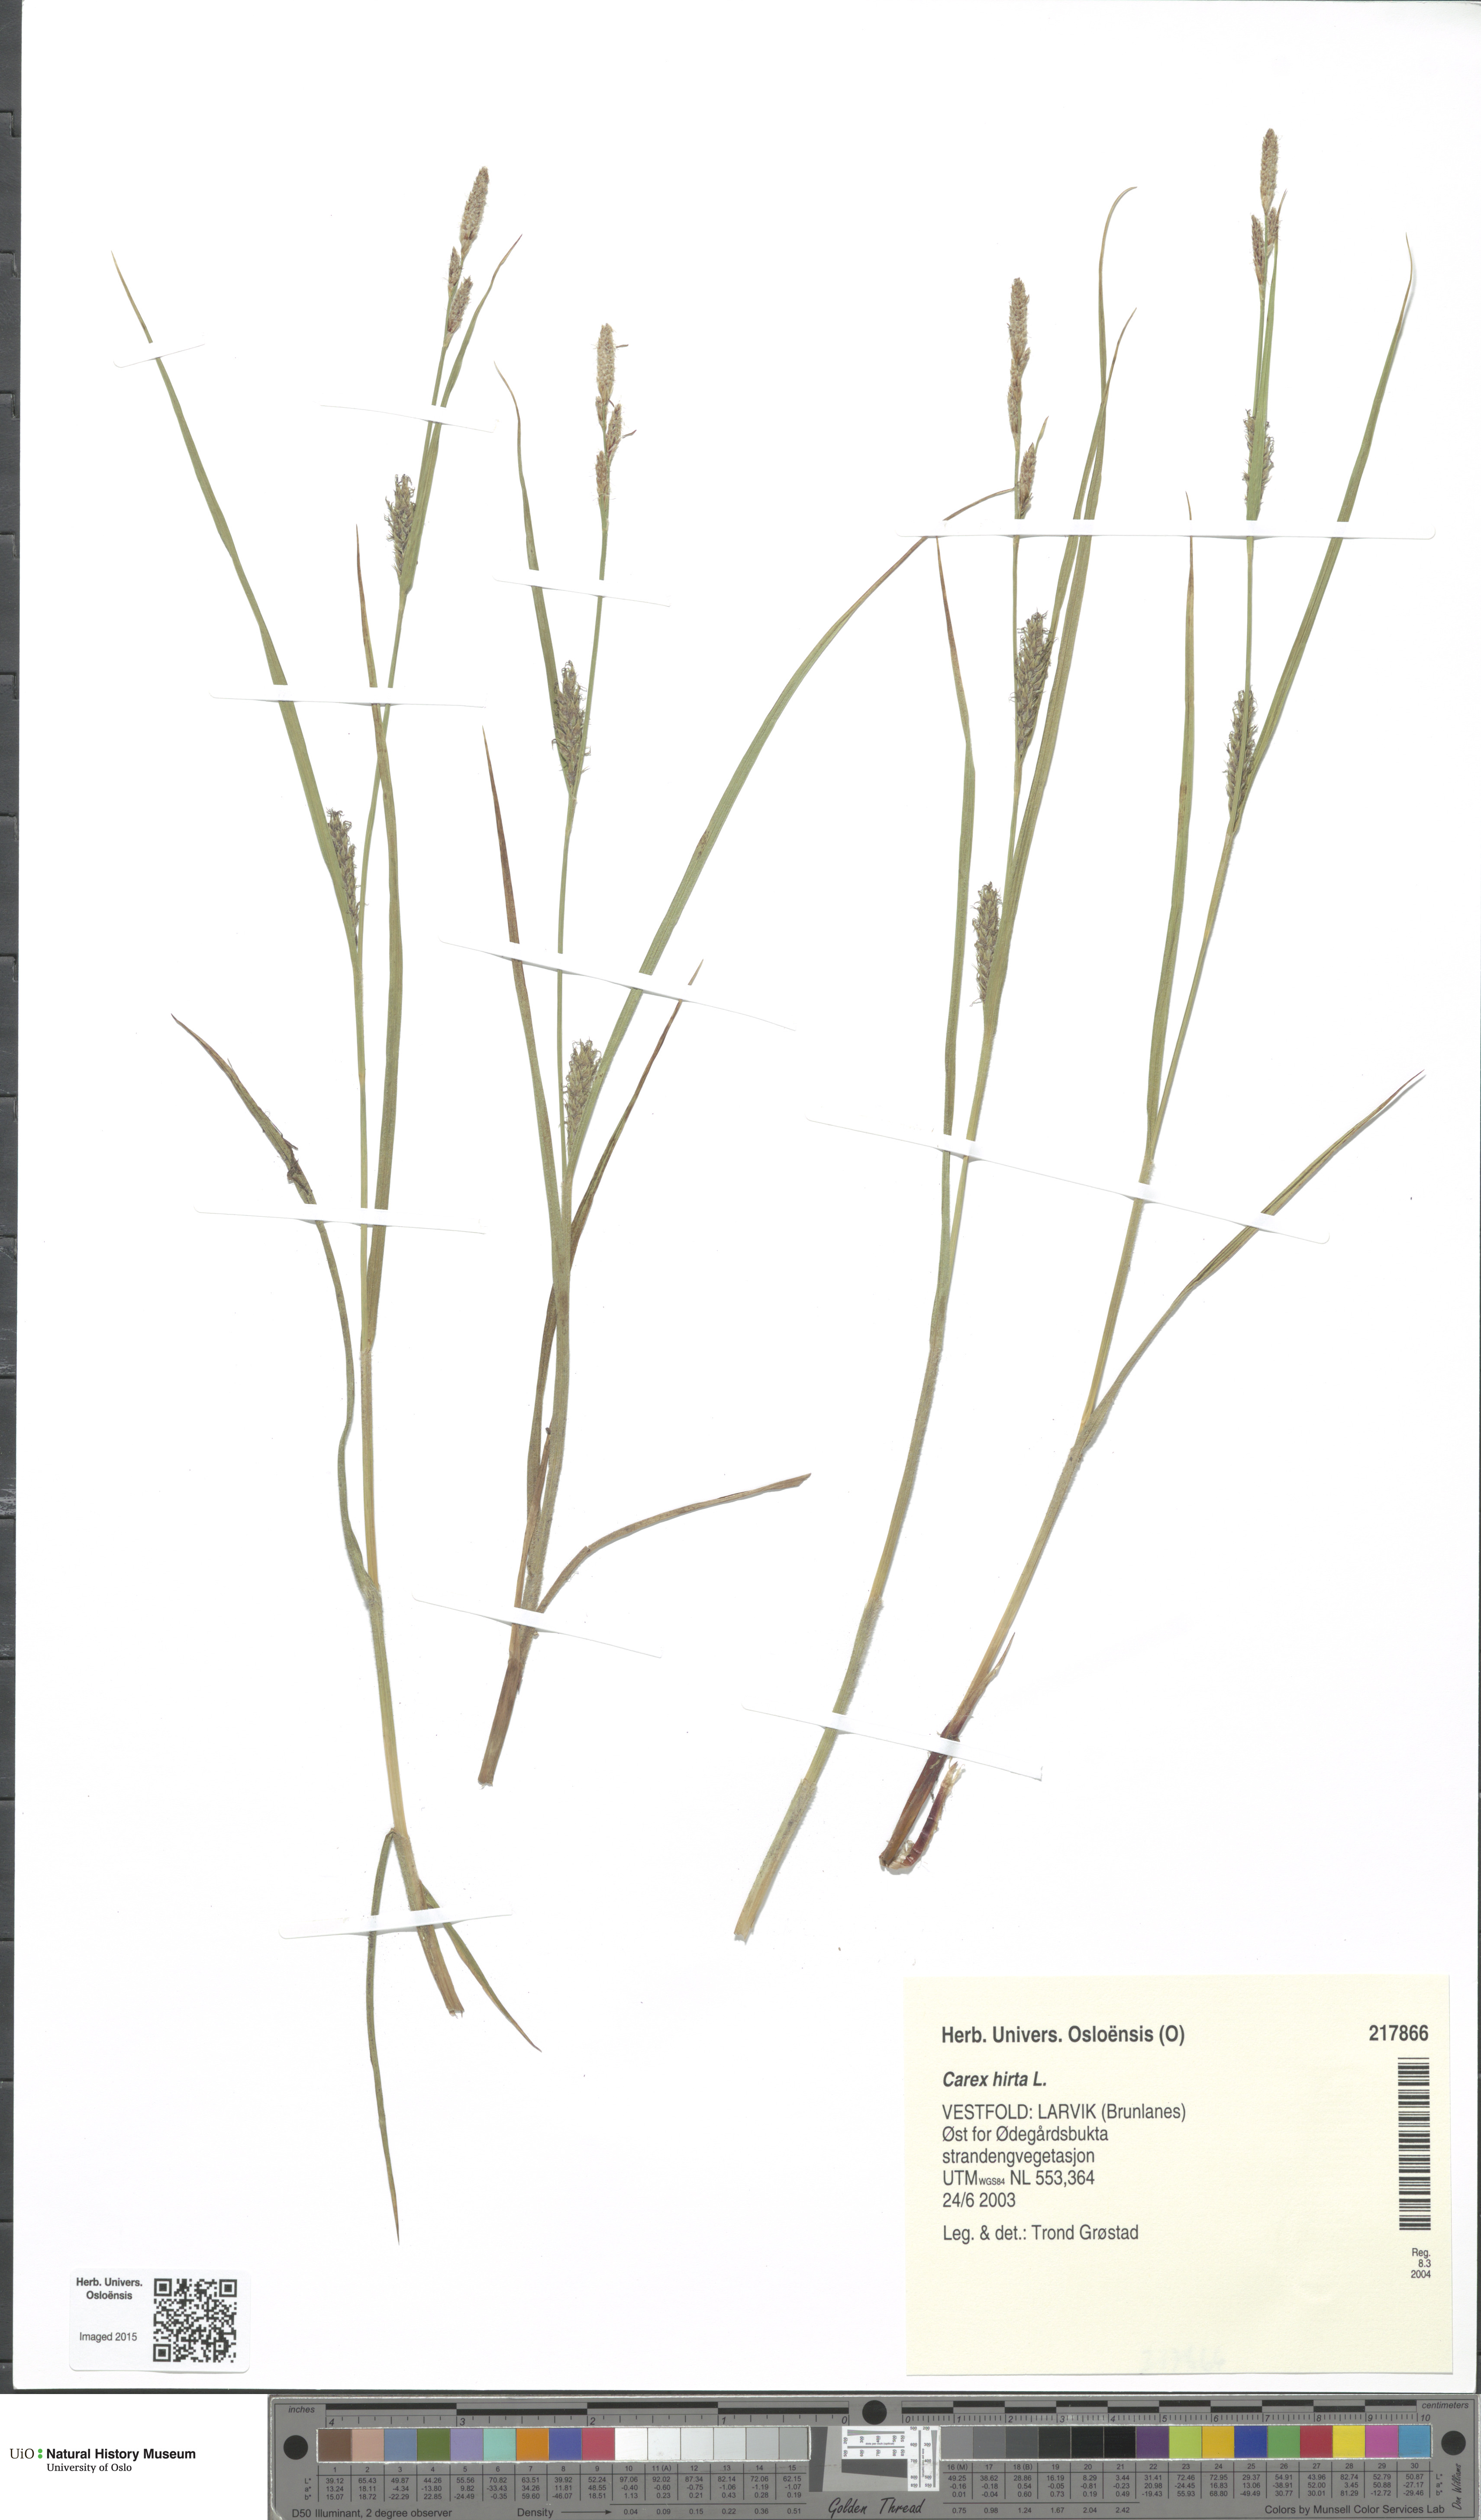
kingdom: Plantae
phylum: Tracheophyta
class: Liliopsida
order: Poales
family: Cyperaceae
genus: Carex
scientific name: Carex hirta
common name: Hairy sedge
